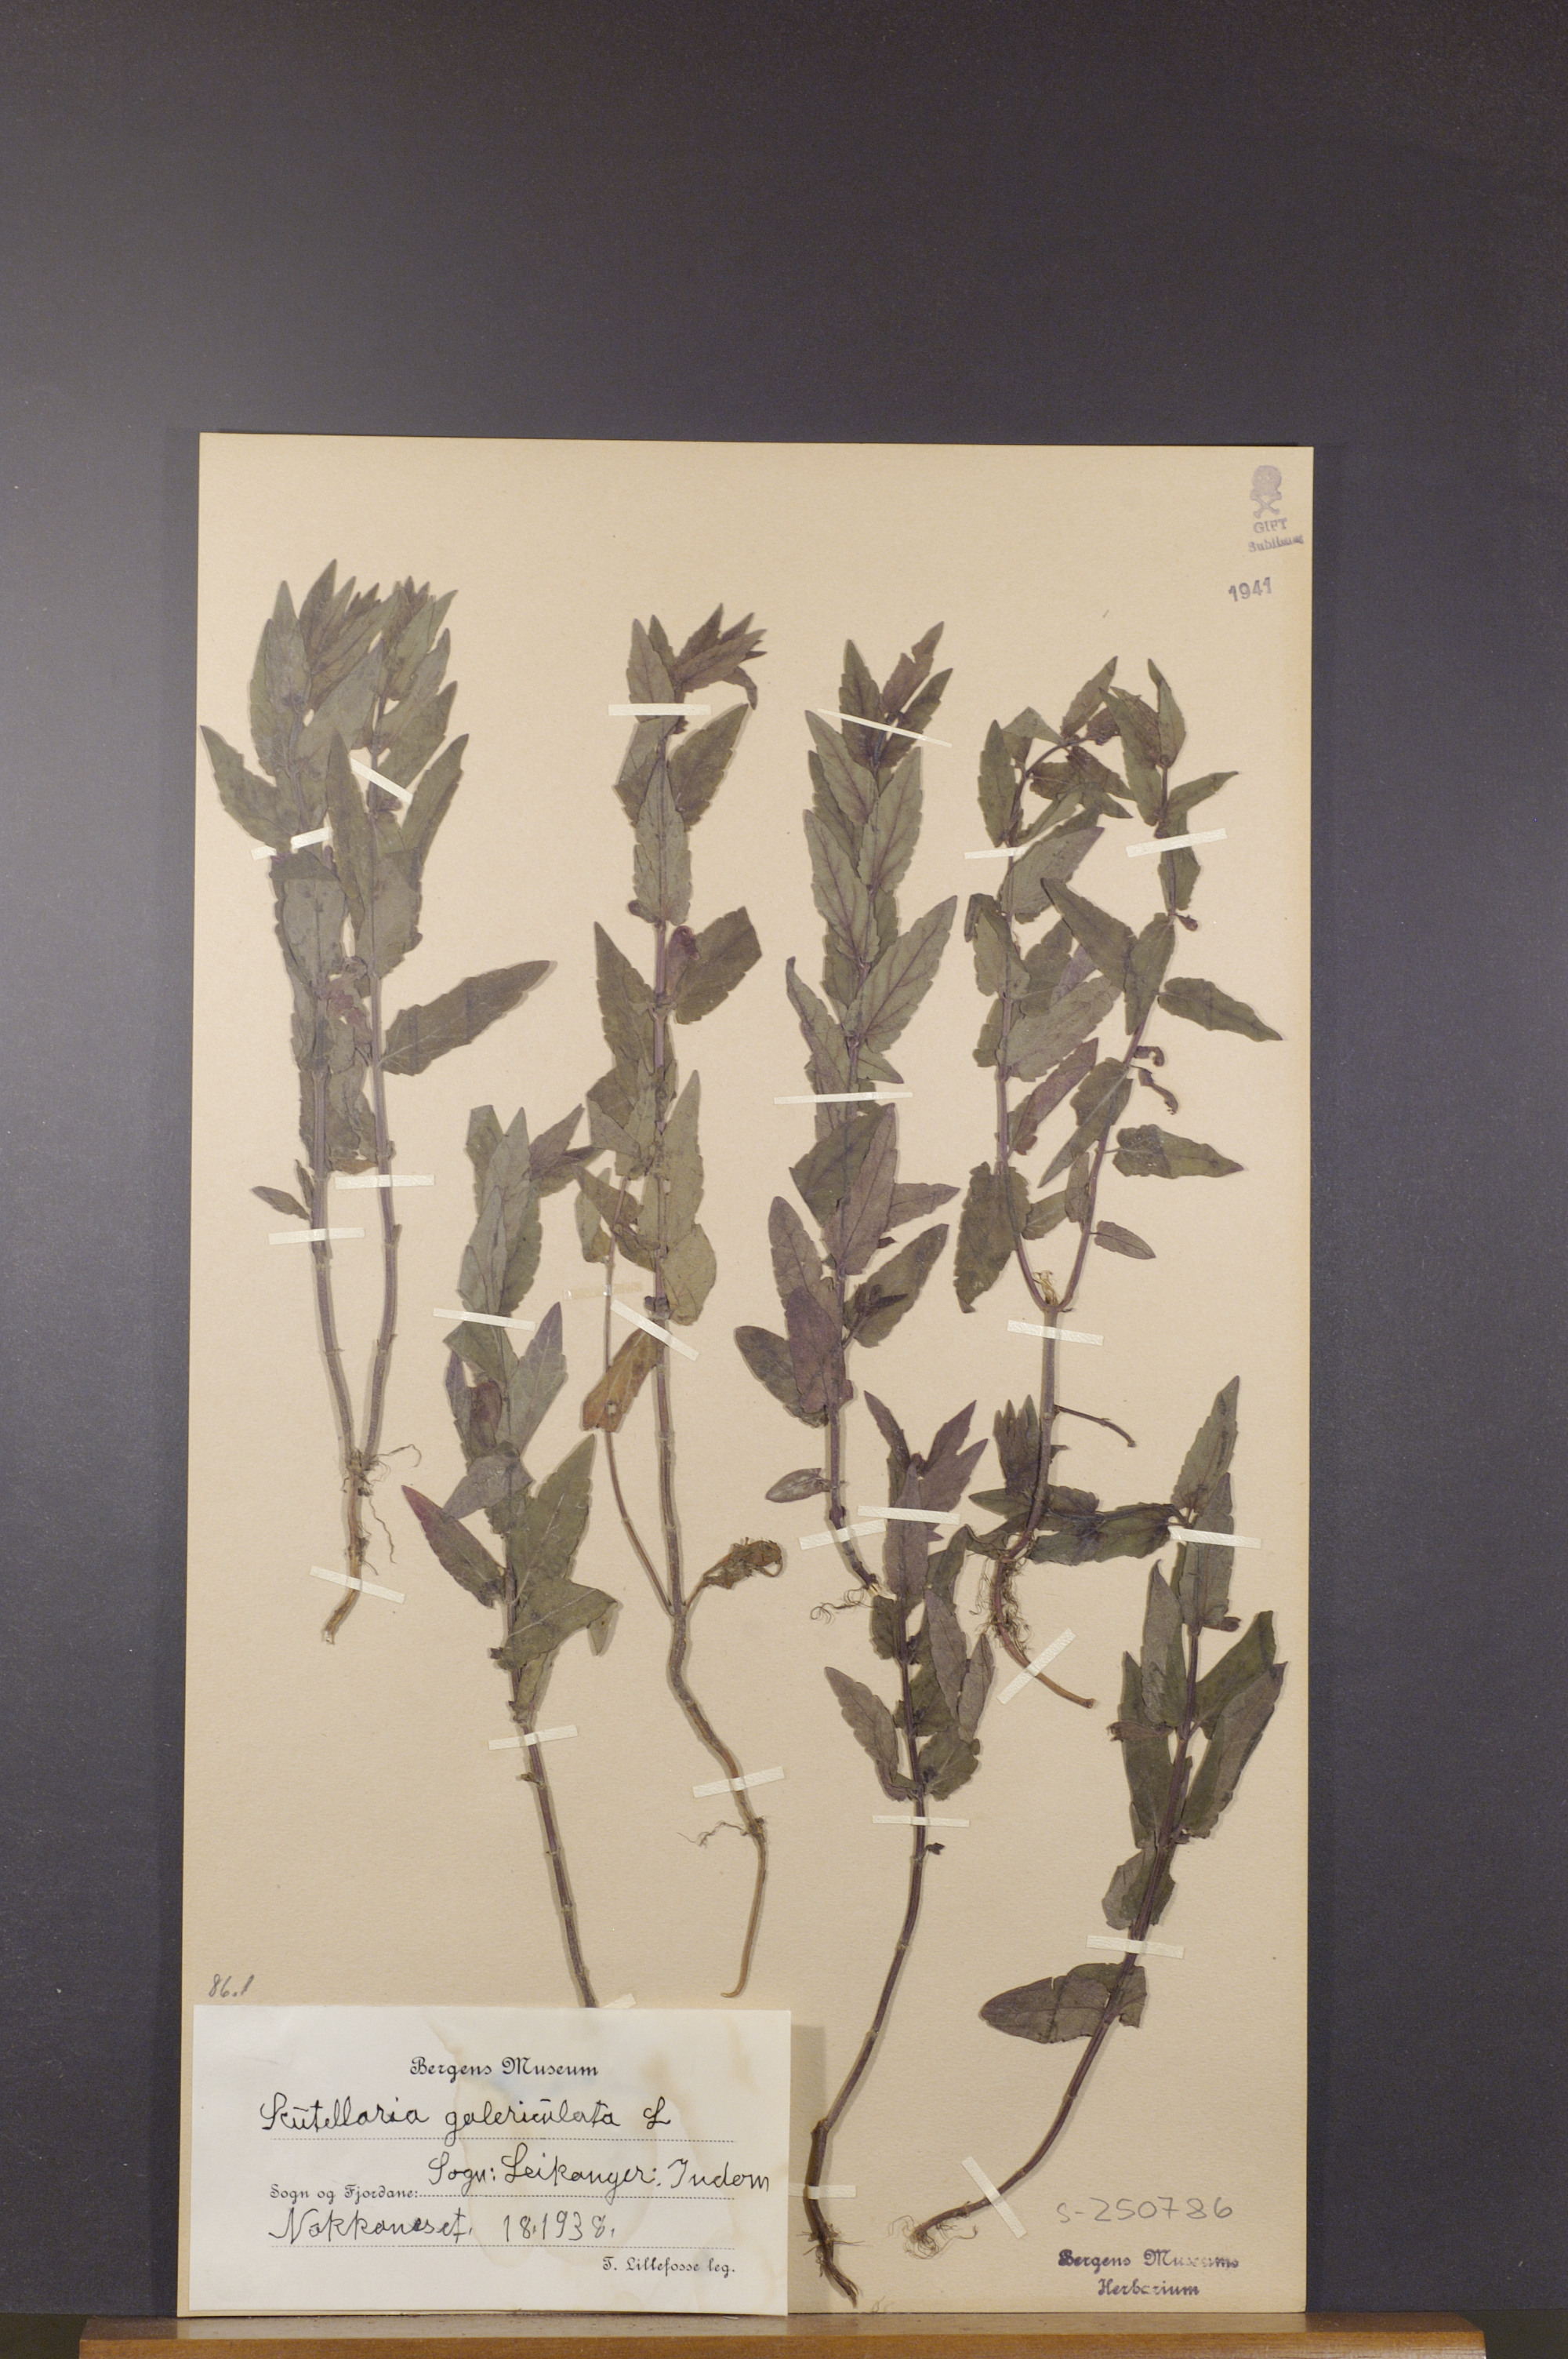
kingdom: Plantae
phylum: Tracheophyta
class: Magnoliopsida
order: Lamiales
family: Lamiaceae
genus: Scutellaria
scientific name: Scutellaria galericulata
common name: Skullcap
